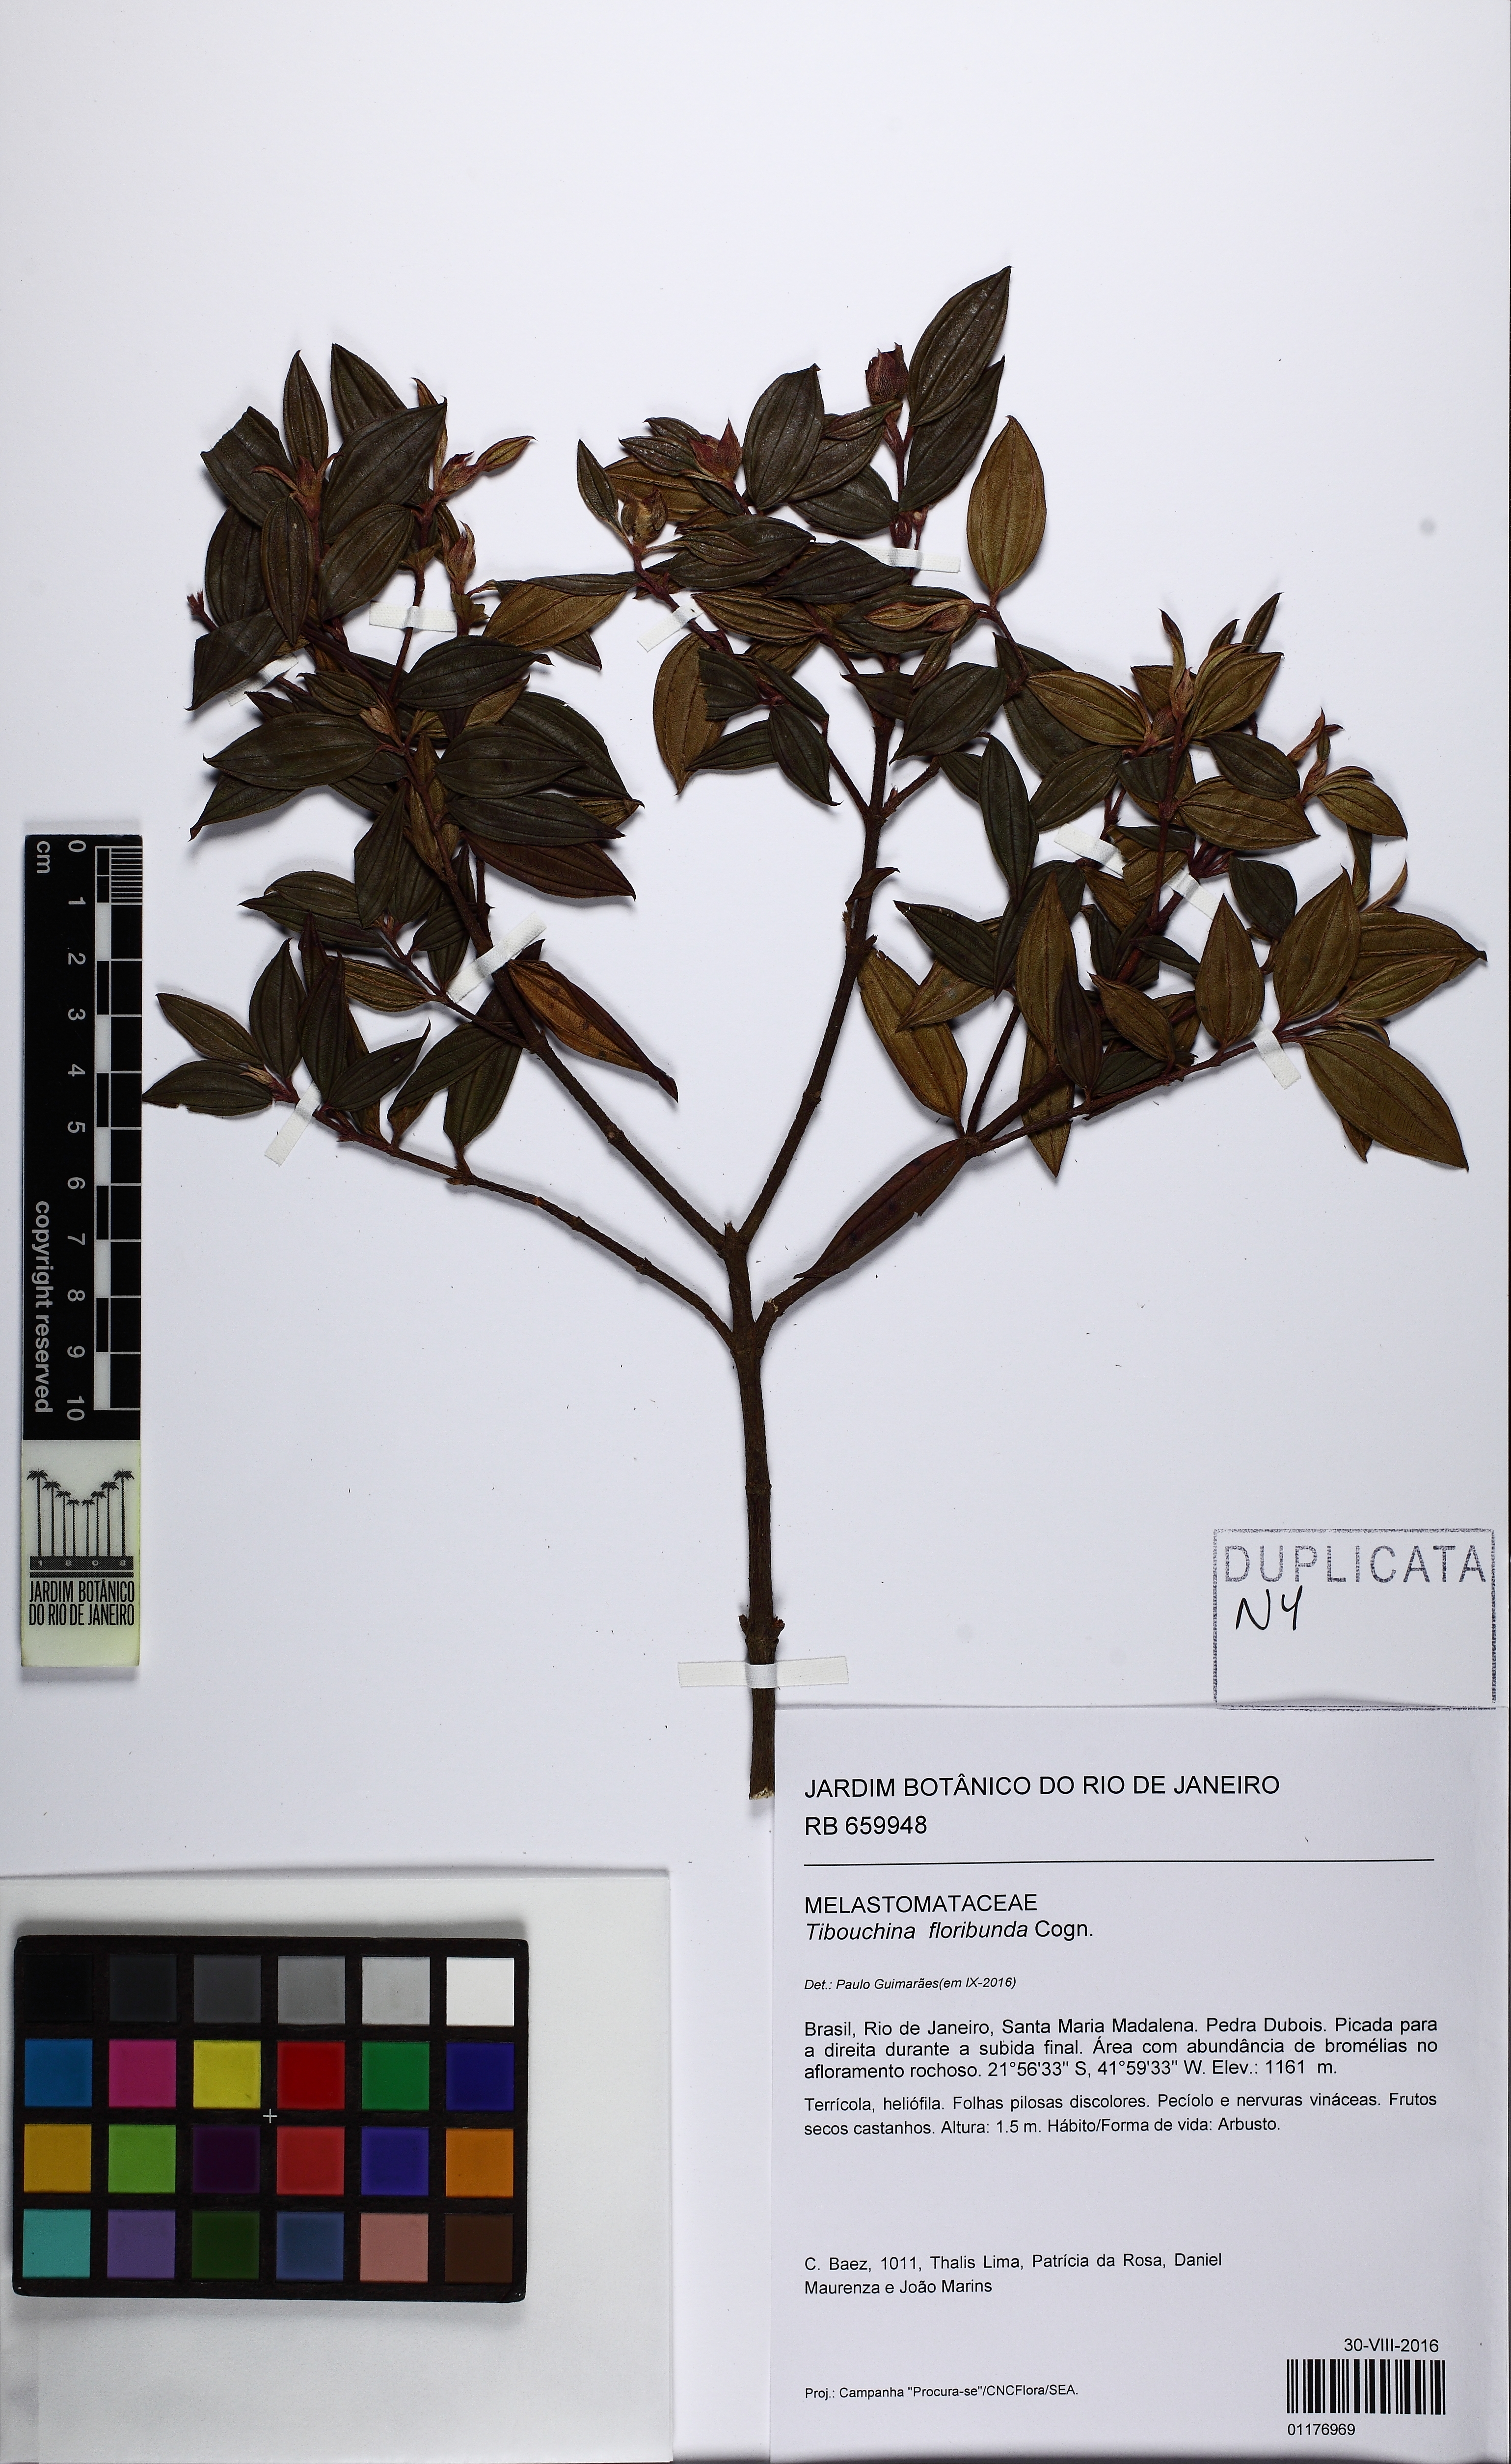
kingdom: Plantae
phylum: Tracheophyta
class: Magnoliopsida
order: Myrtales
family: Melastomataceae
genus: Pleroma
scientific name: Pleroma floribundum
